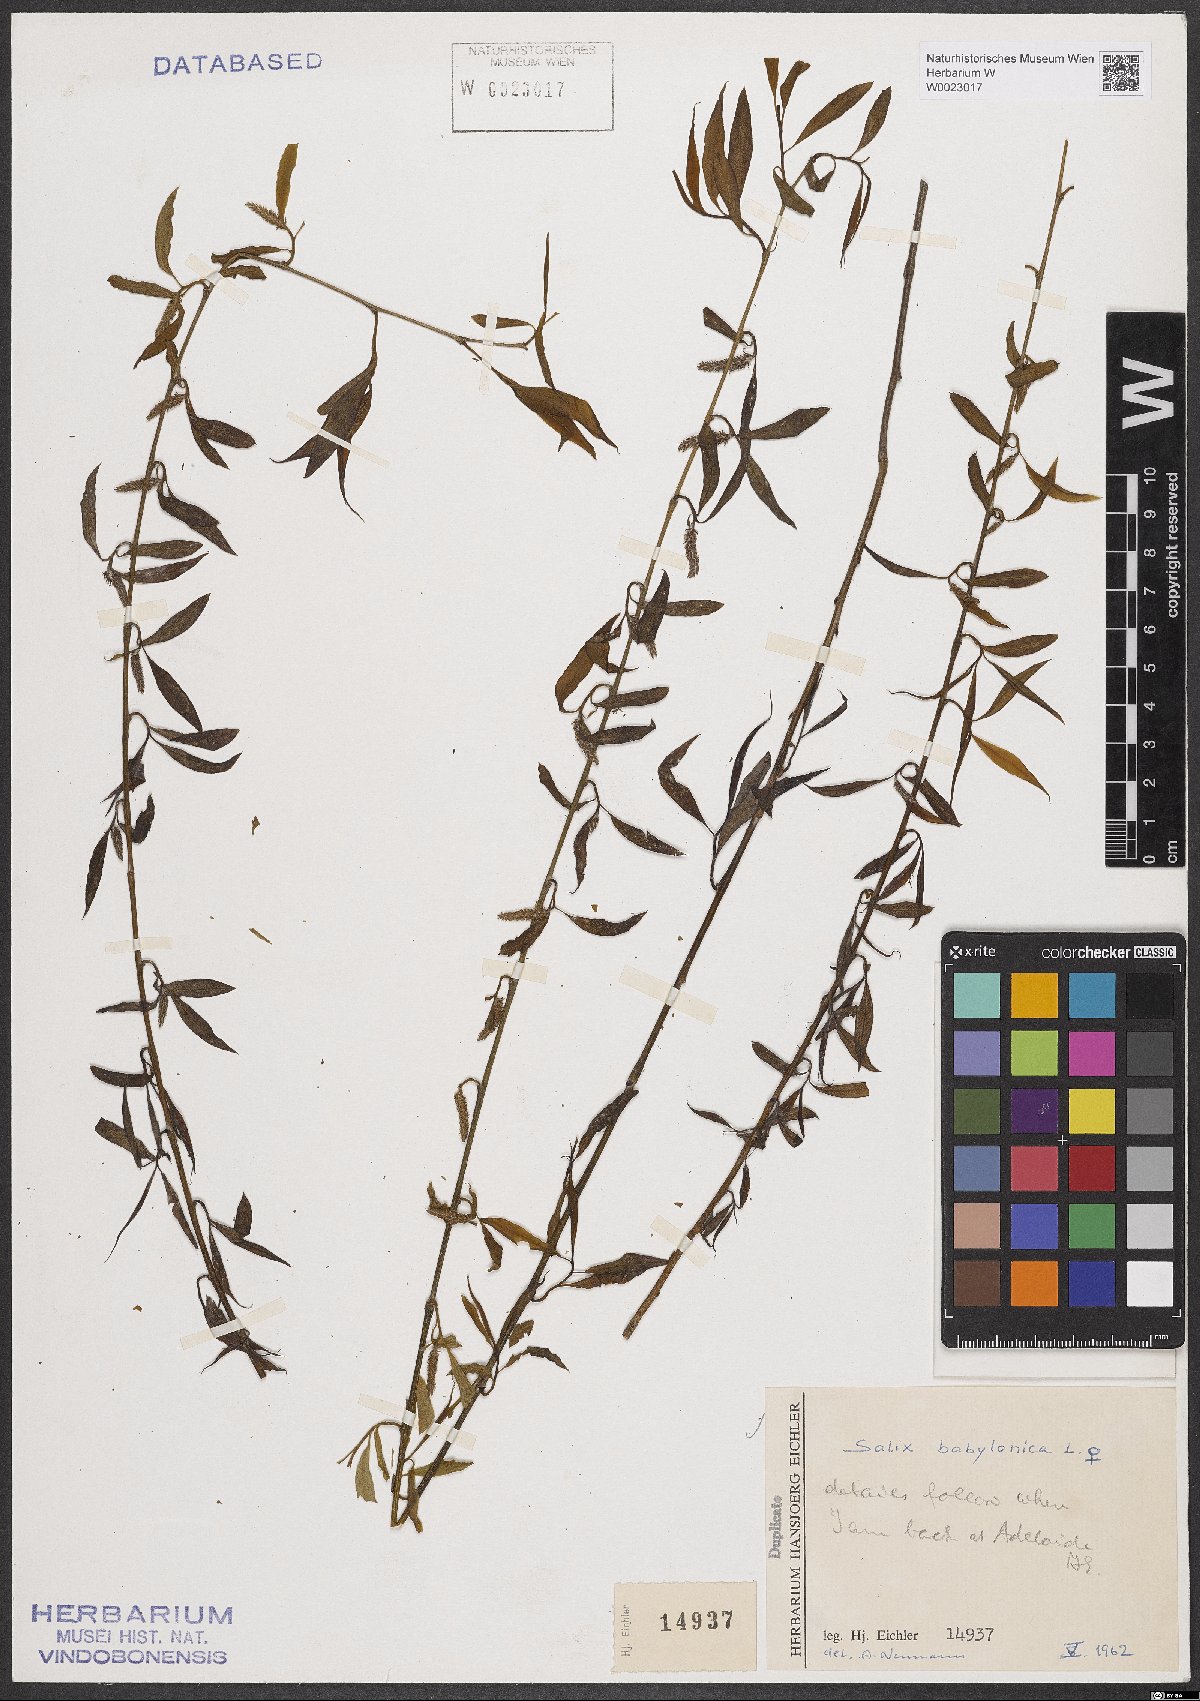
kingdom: Plantae
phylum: Tracheophyta
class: Magnoliopsida
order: Malpighiales
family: Salicaceae
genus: Salix
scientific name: Salix babylonica
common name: Weeping willow
